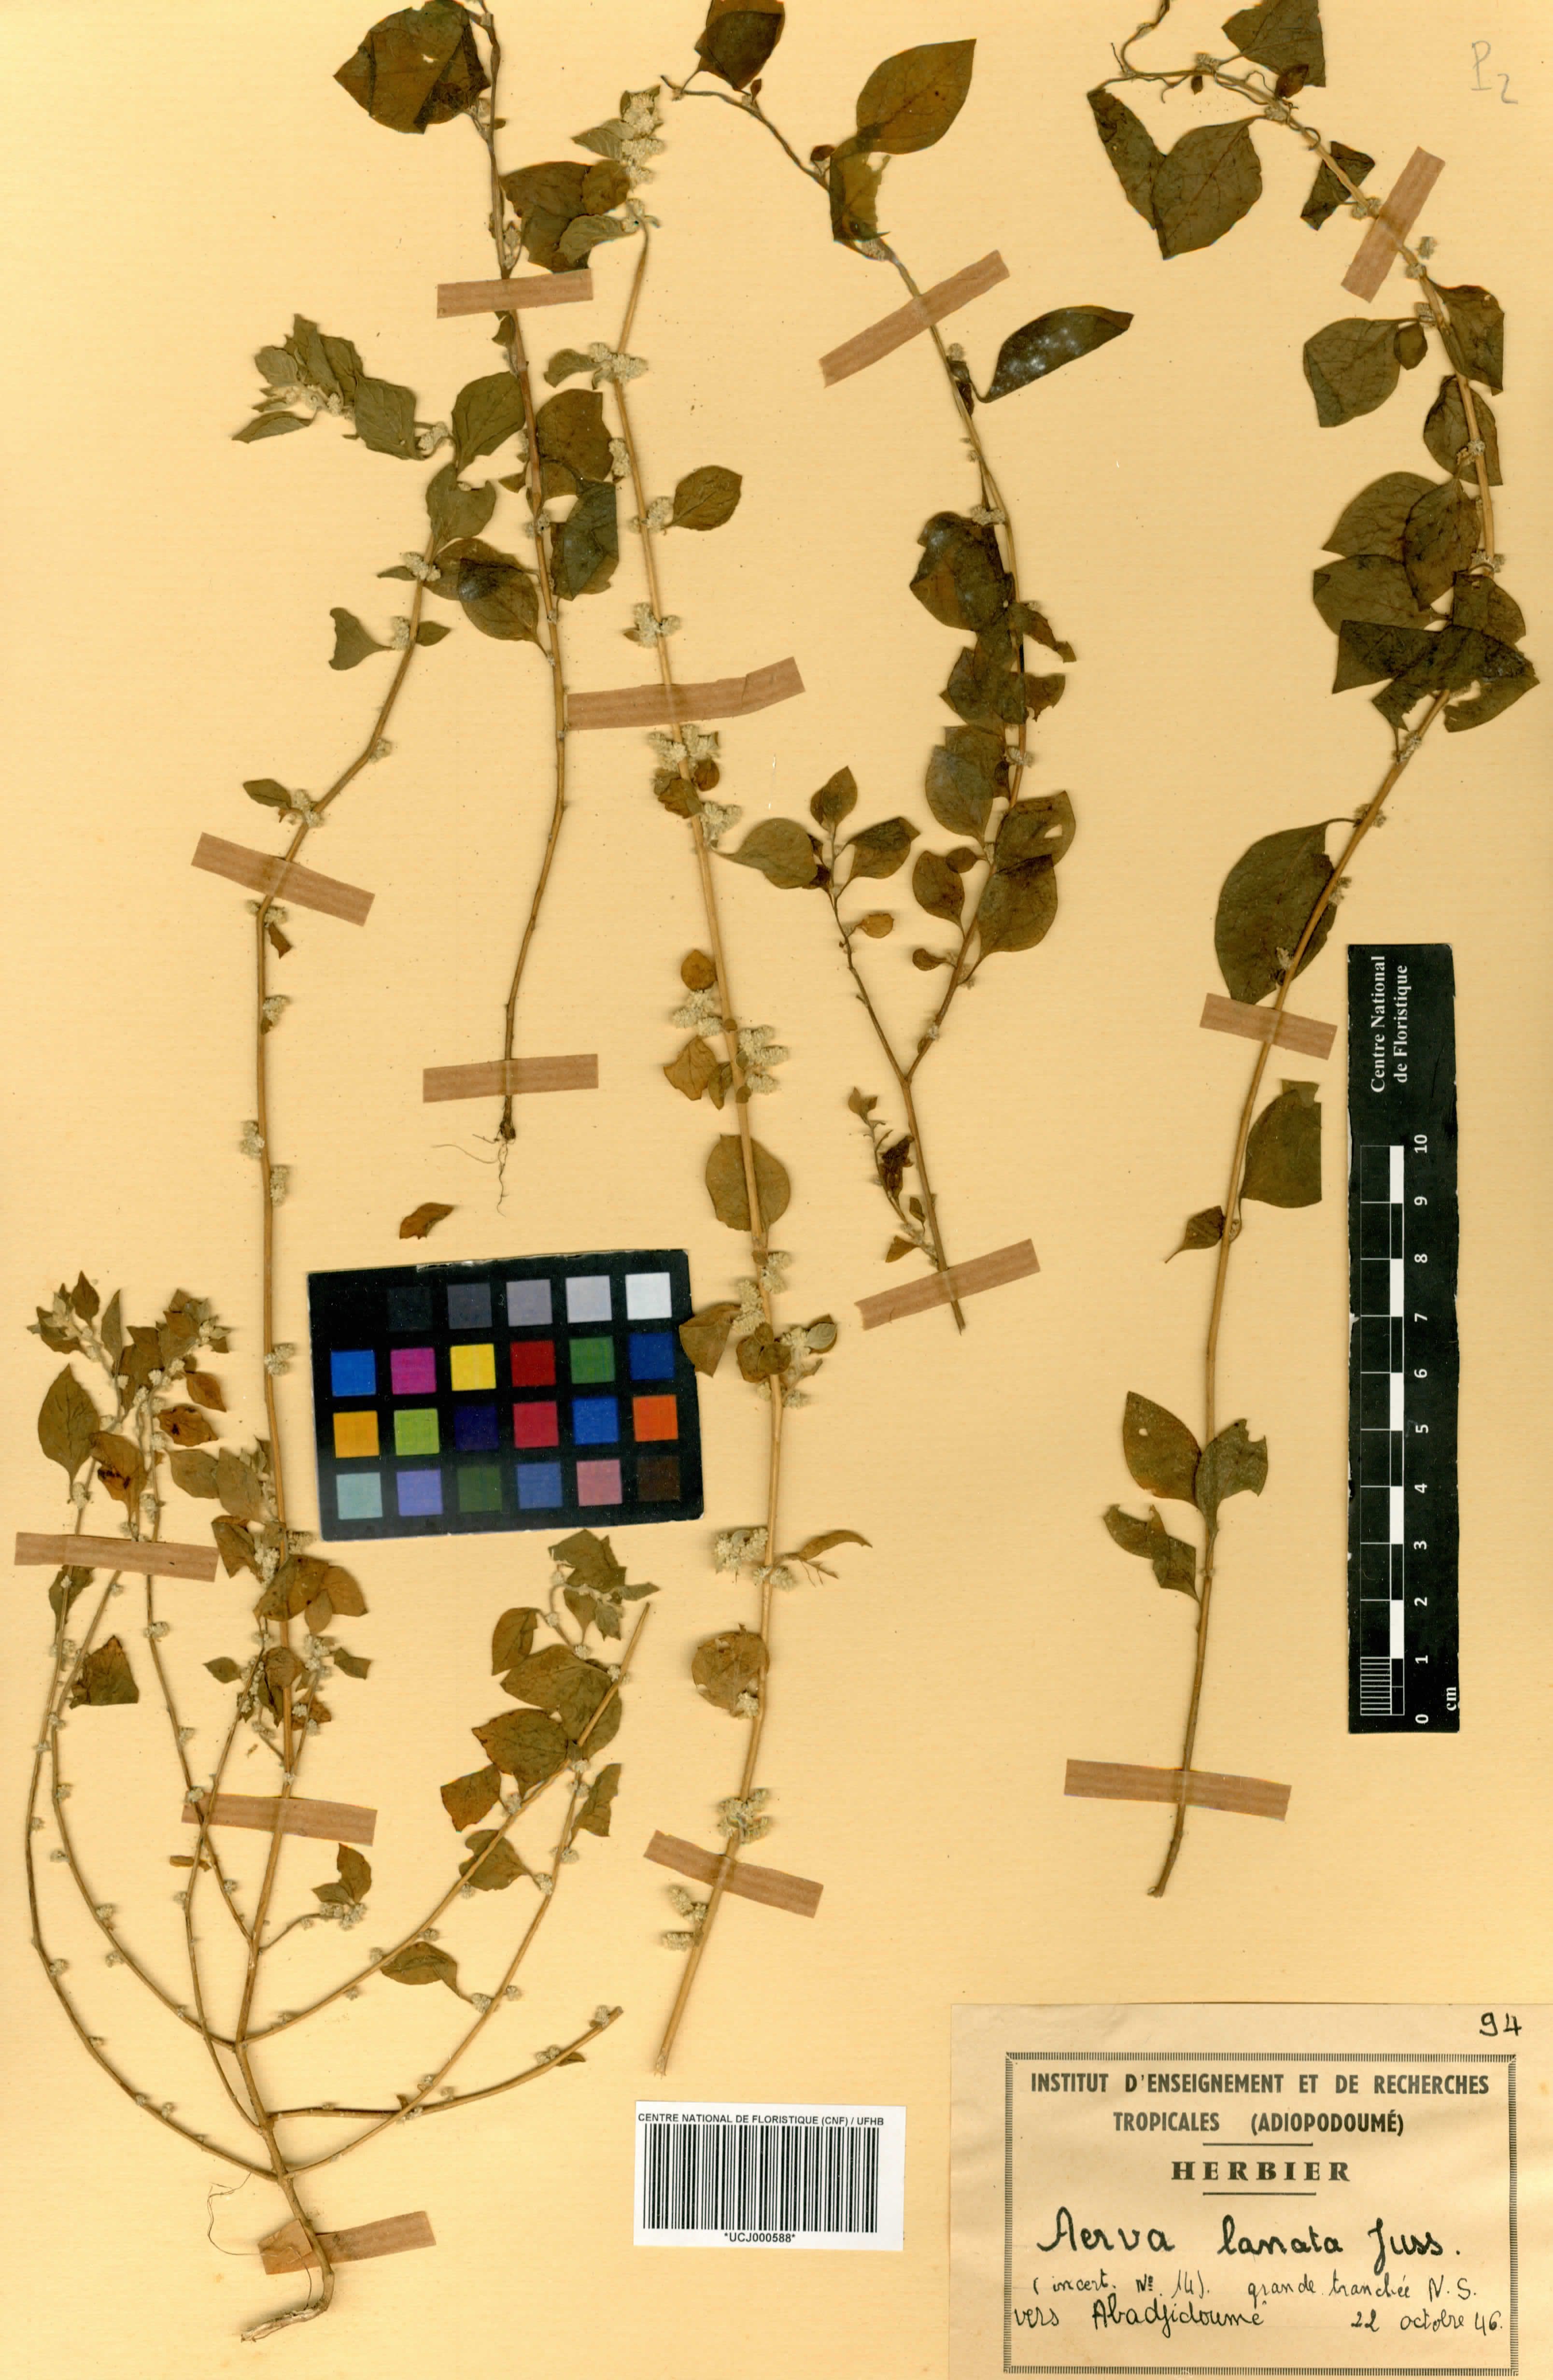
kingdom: Plantae
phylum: Tracheophyta
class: Magnoliopsida
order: Caryophyllales
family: Amaranthaceae
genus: Ouret
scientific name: Ouret lanata
